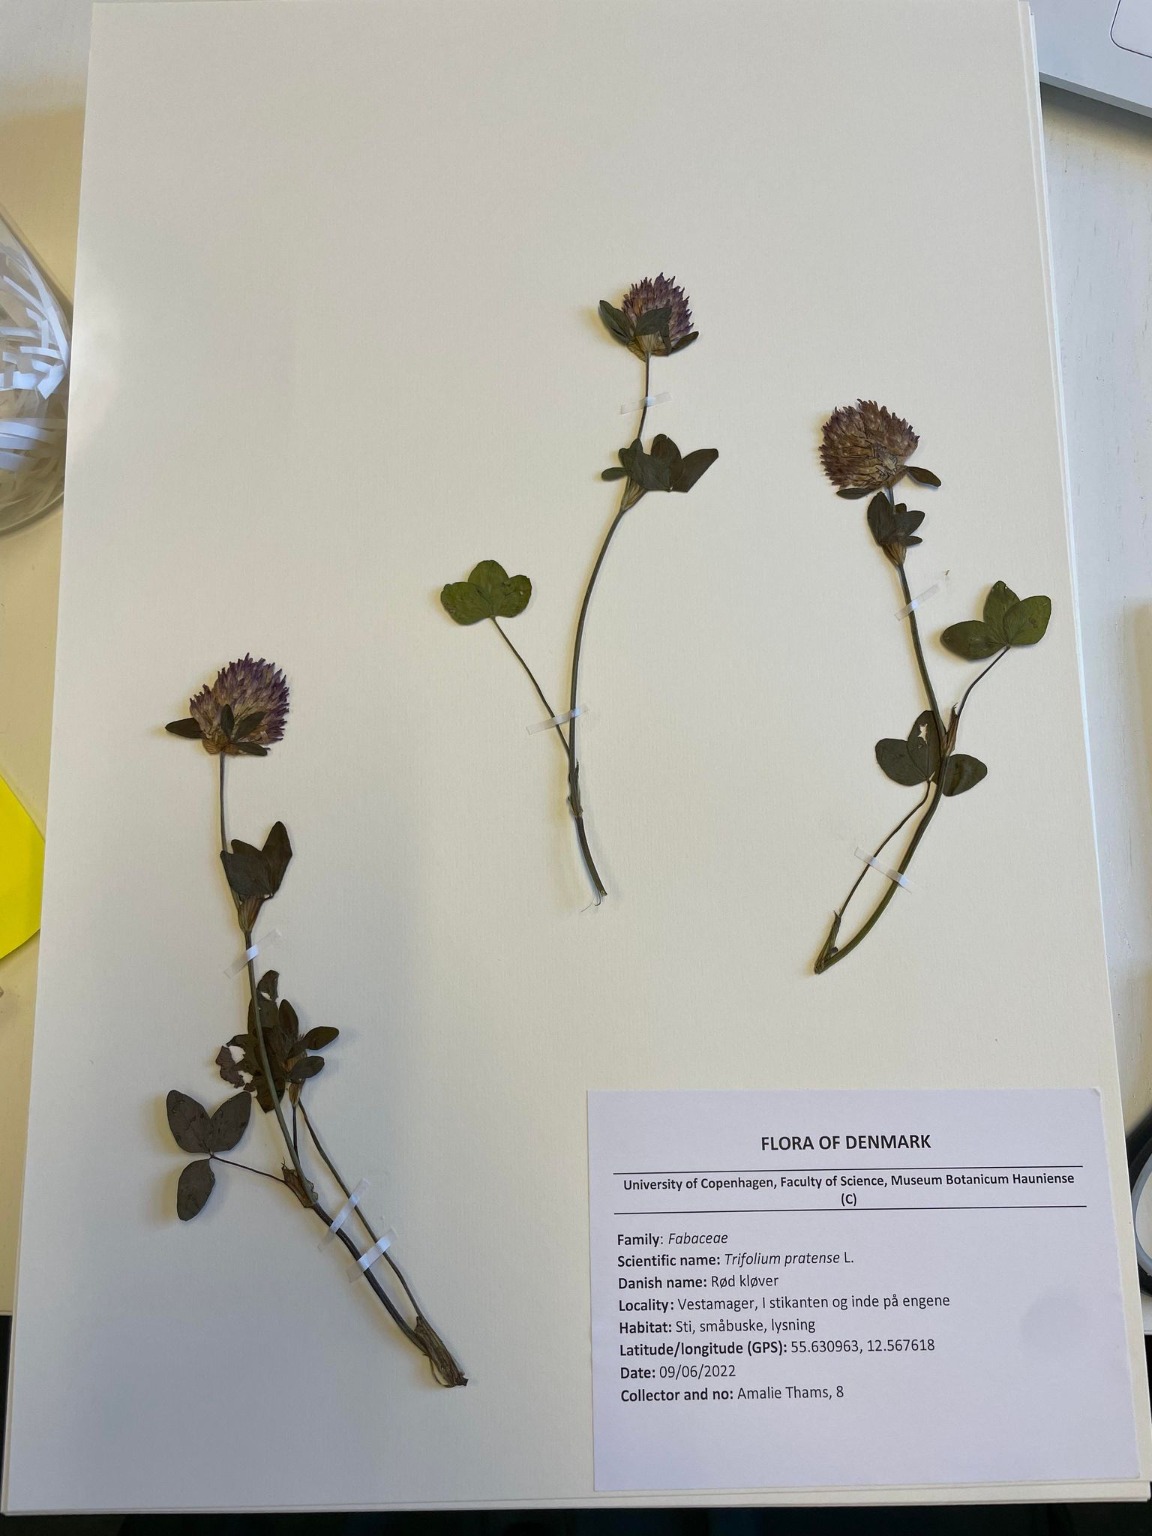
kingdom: Plantae
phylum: Tracheophyta
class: Magnoliopsida
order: Fabales
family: Fabaceae
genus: Trifolium
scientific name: Trifolium pratense
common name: Rød-kløver
